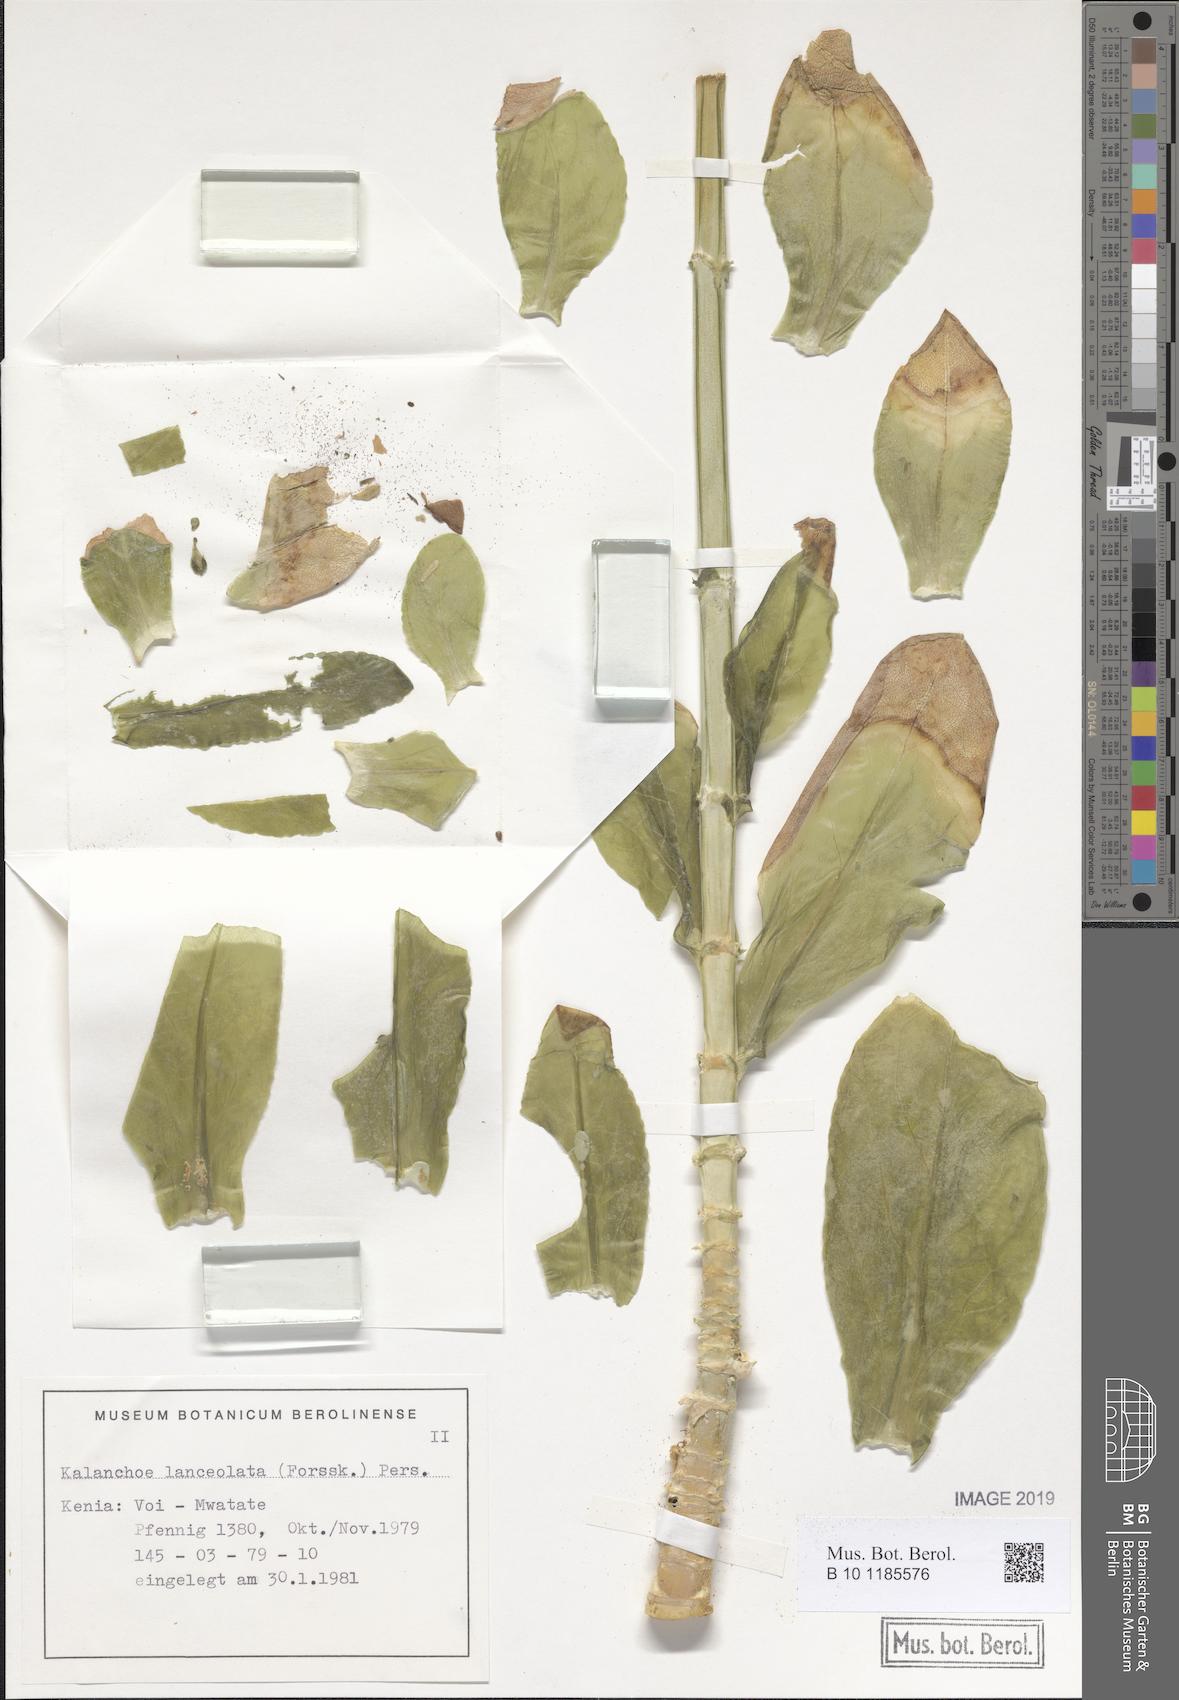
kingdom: Plantae
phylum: Tracheophyta
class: Magnoliopsida
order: Saxifragales
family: Crassulaceae
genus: Kalanchoe
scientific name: Kalanchoe lanceolata
